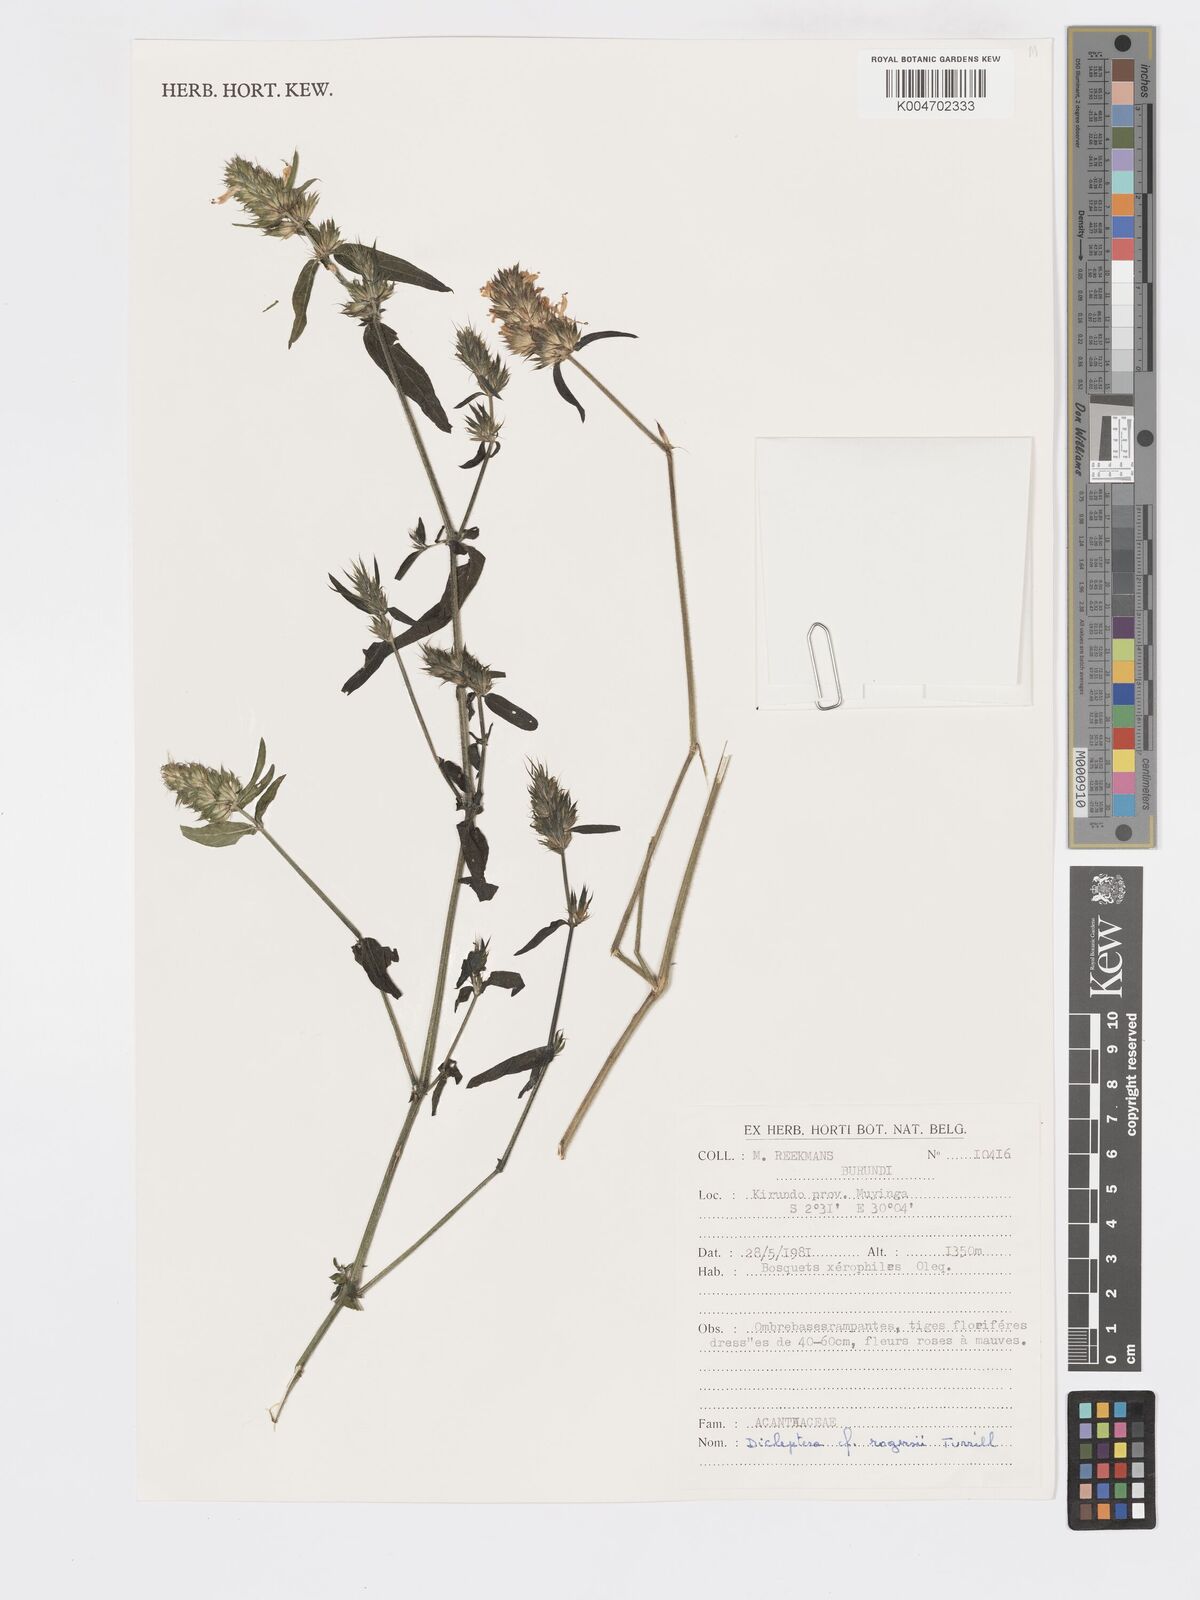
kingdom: Plantae
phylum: Tracheophyta
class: Magnoliopsida
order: Lamiales
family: Acanthaceae
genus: Dicliptera
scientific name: Dicliptera carvalhoi
